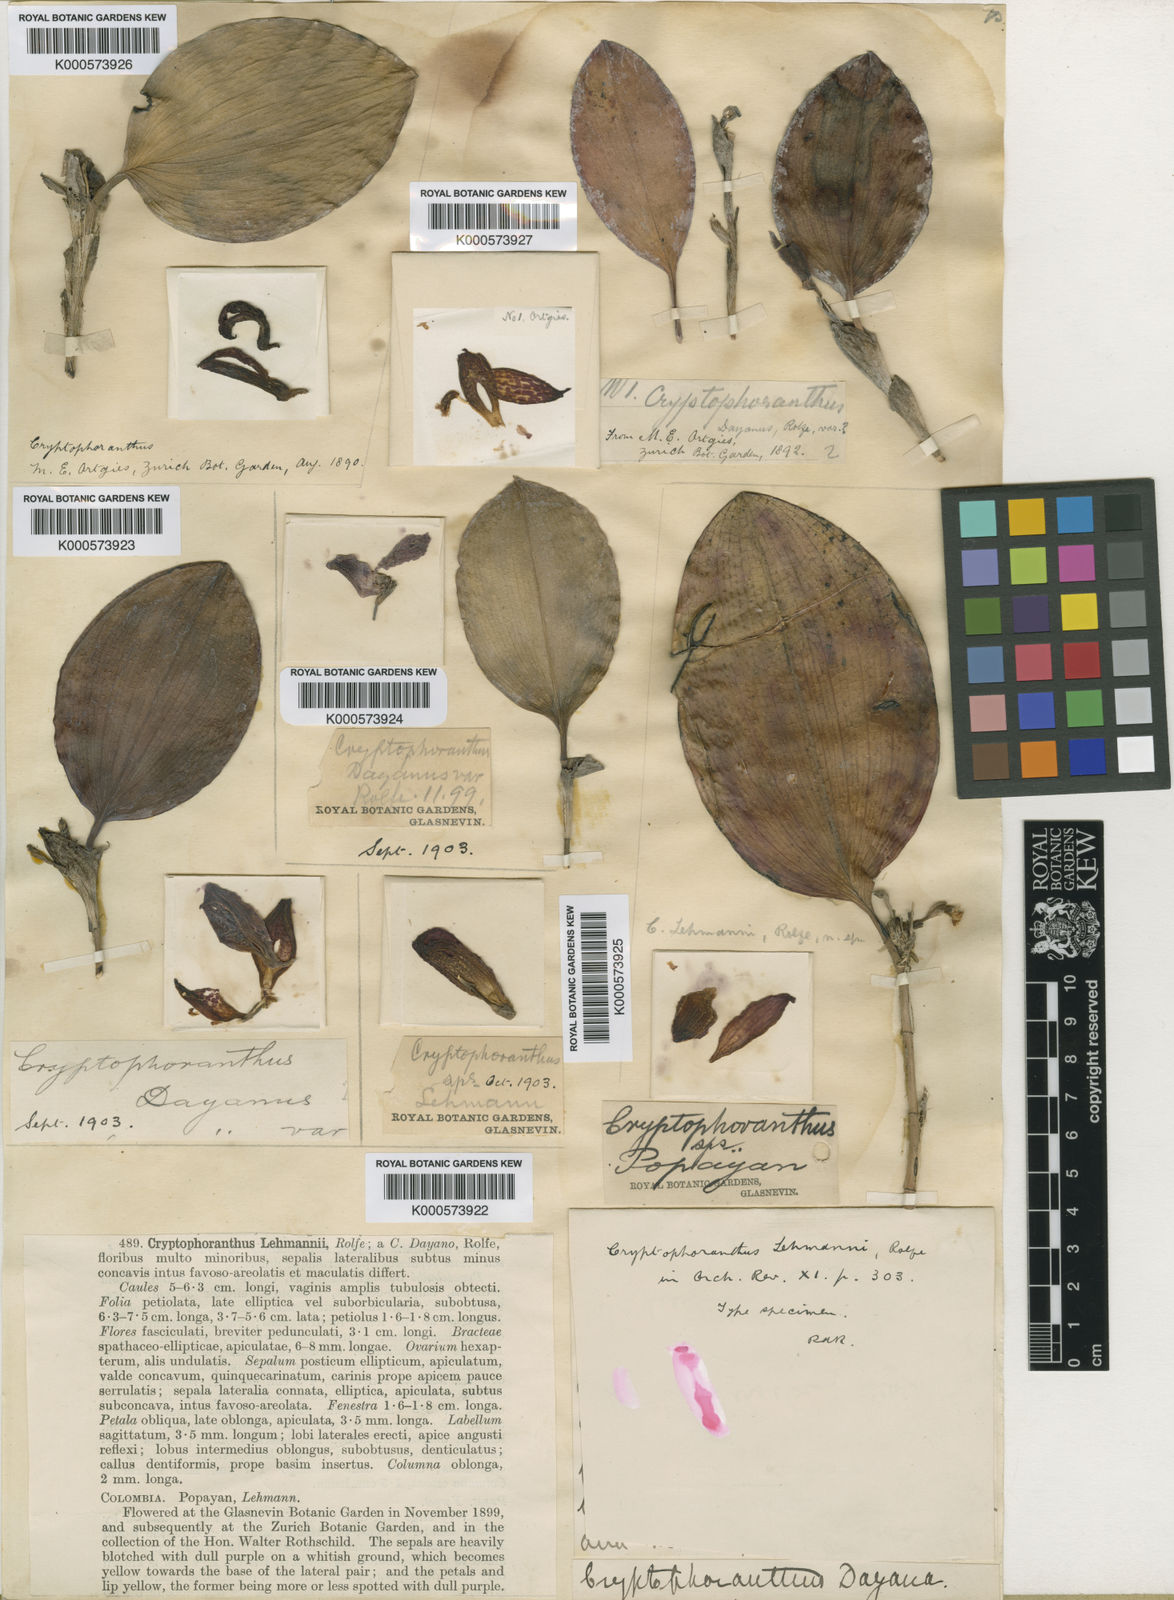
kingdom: Plantae
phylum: Tracheophyta
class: Liliopsida
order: Asparagales
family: Orchidaceae
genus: Zootrophion
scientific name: Zootrophion gracilentum
